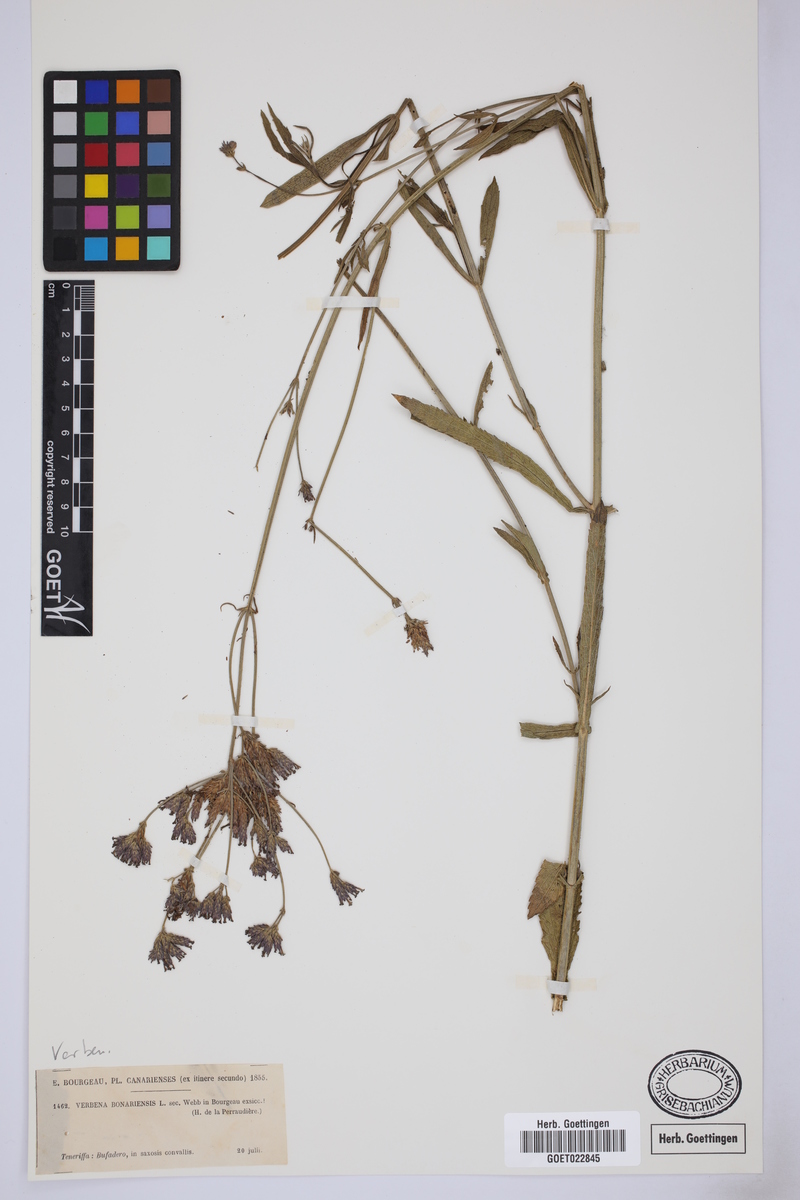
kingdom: Plantae
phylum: Tracheophyta
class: Magnoliopsida
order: Lamiales
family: Verbenaceae
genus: Verbena
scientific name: Verbena bonariensis
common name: Purpletop vervain
